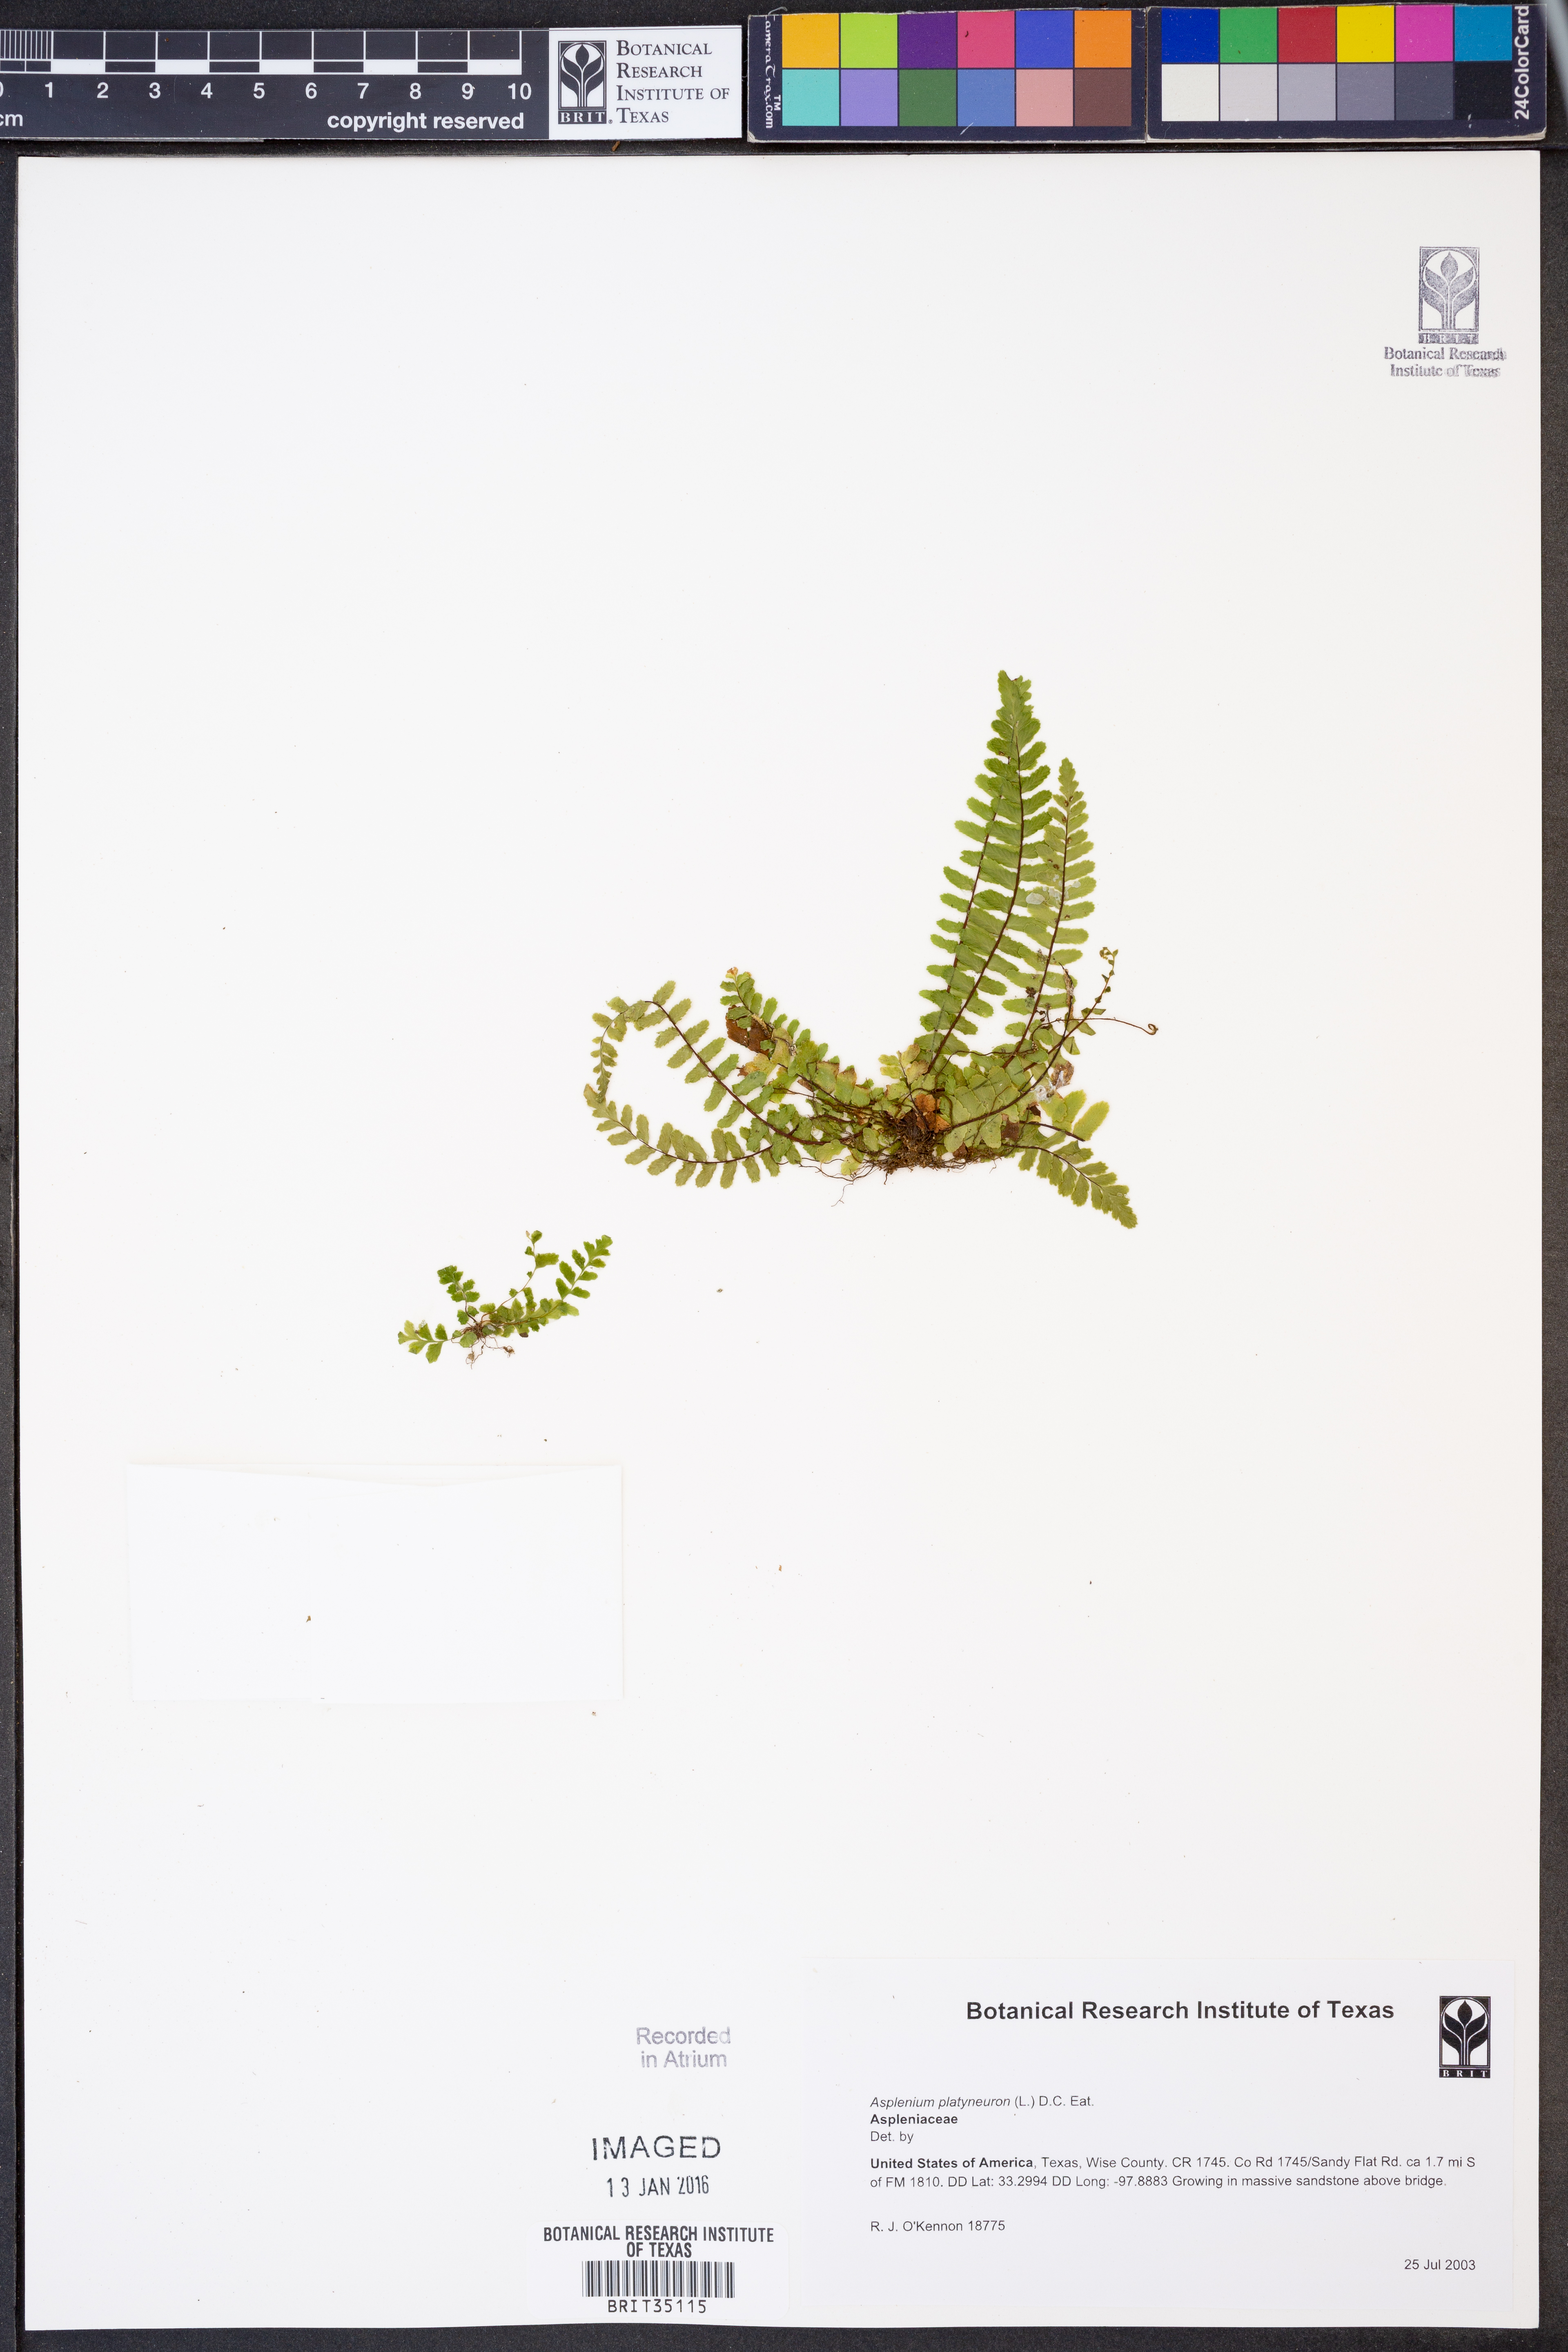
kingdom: Plantae
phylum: Tracheophyta
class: Polypodiopsida
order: Polypodiales
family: Aspleniaceae
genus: Asplenium
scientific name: Asplenium platyneuron
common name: Ebony spleenwort
